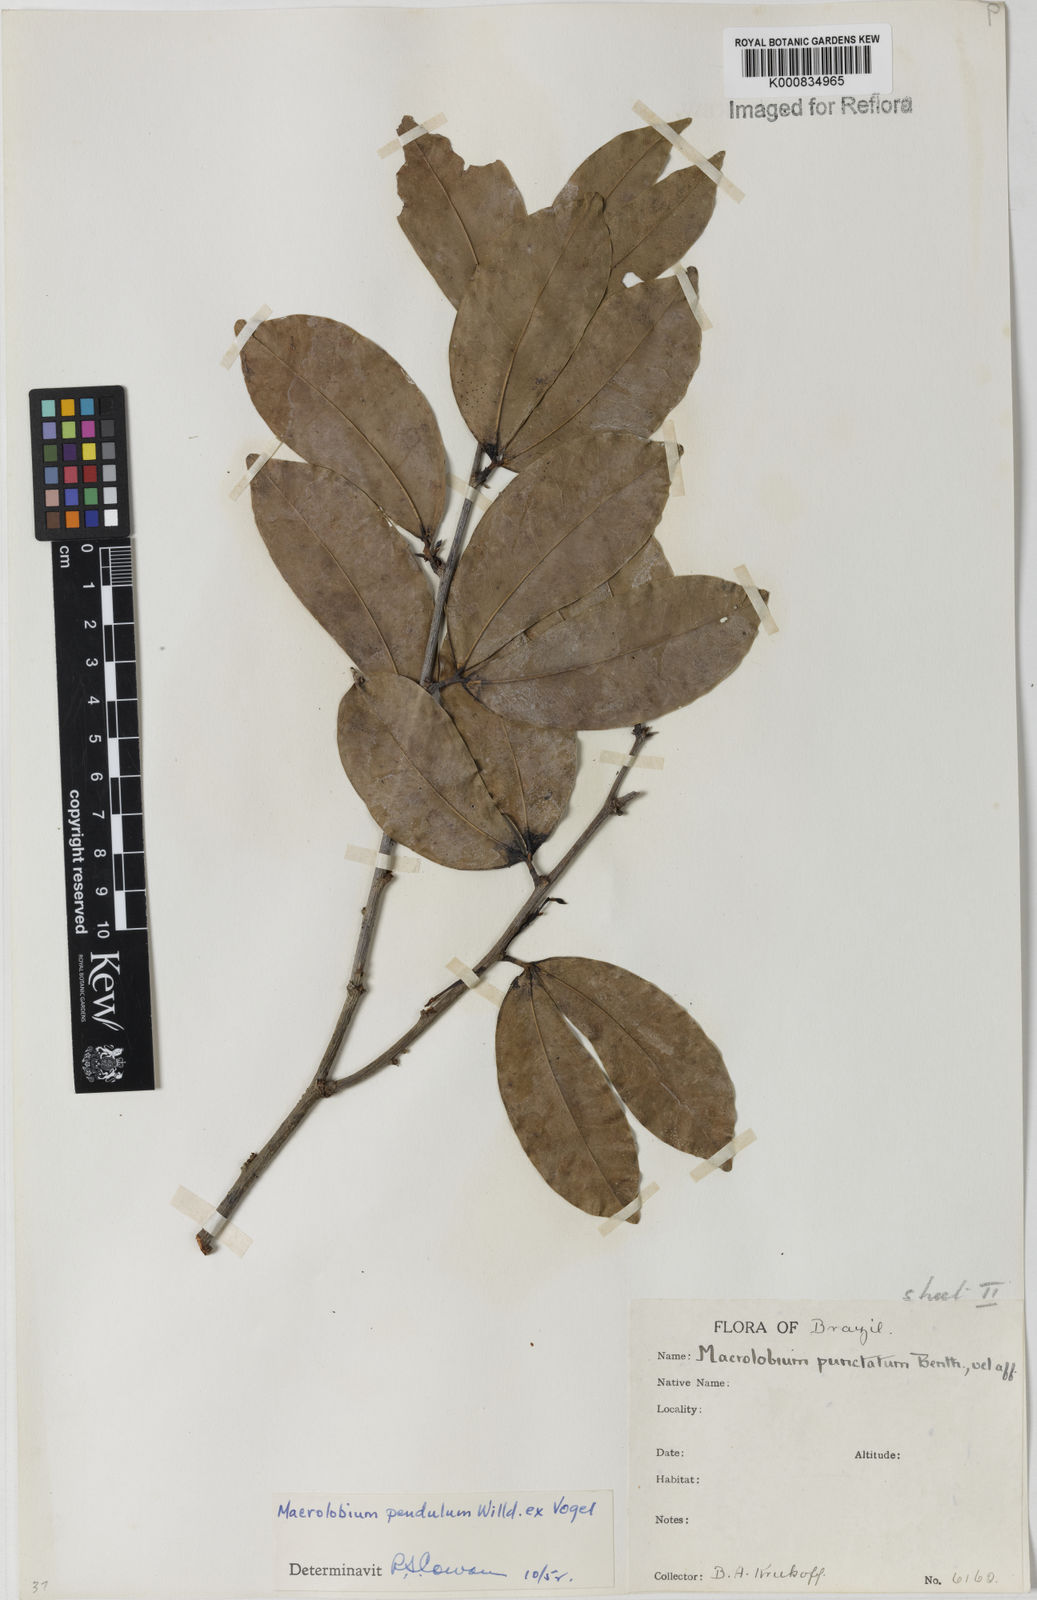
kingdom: Plantae
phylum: Tracheophyta
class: Magnoliopsida
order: Fabales
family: Fabaceae
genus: Macrolobium
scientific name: Macrolobium punctatum
